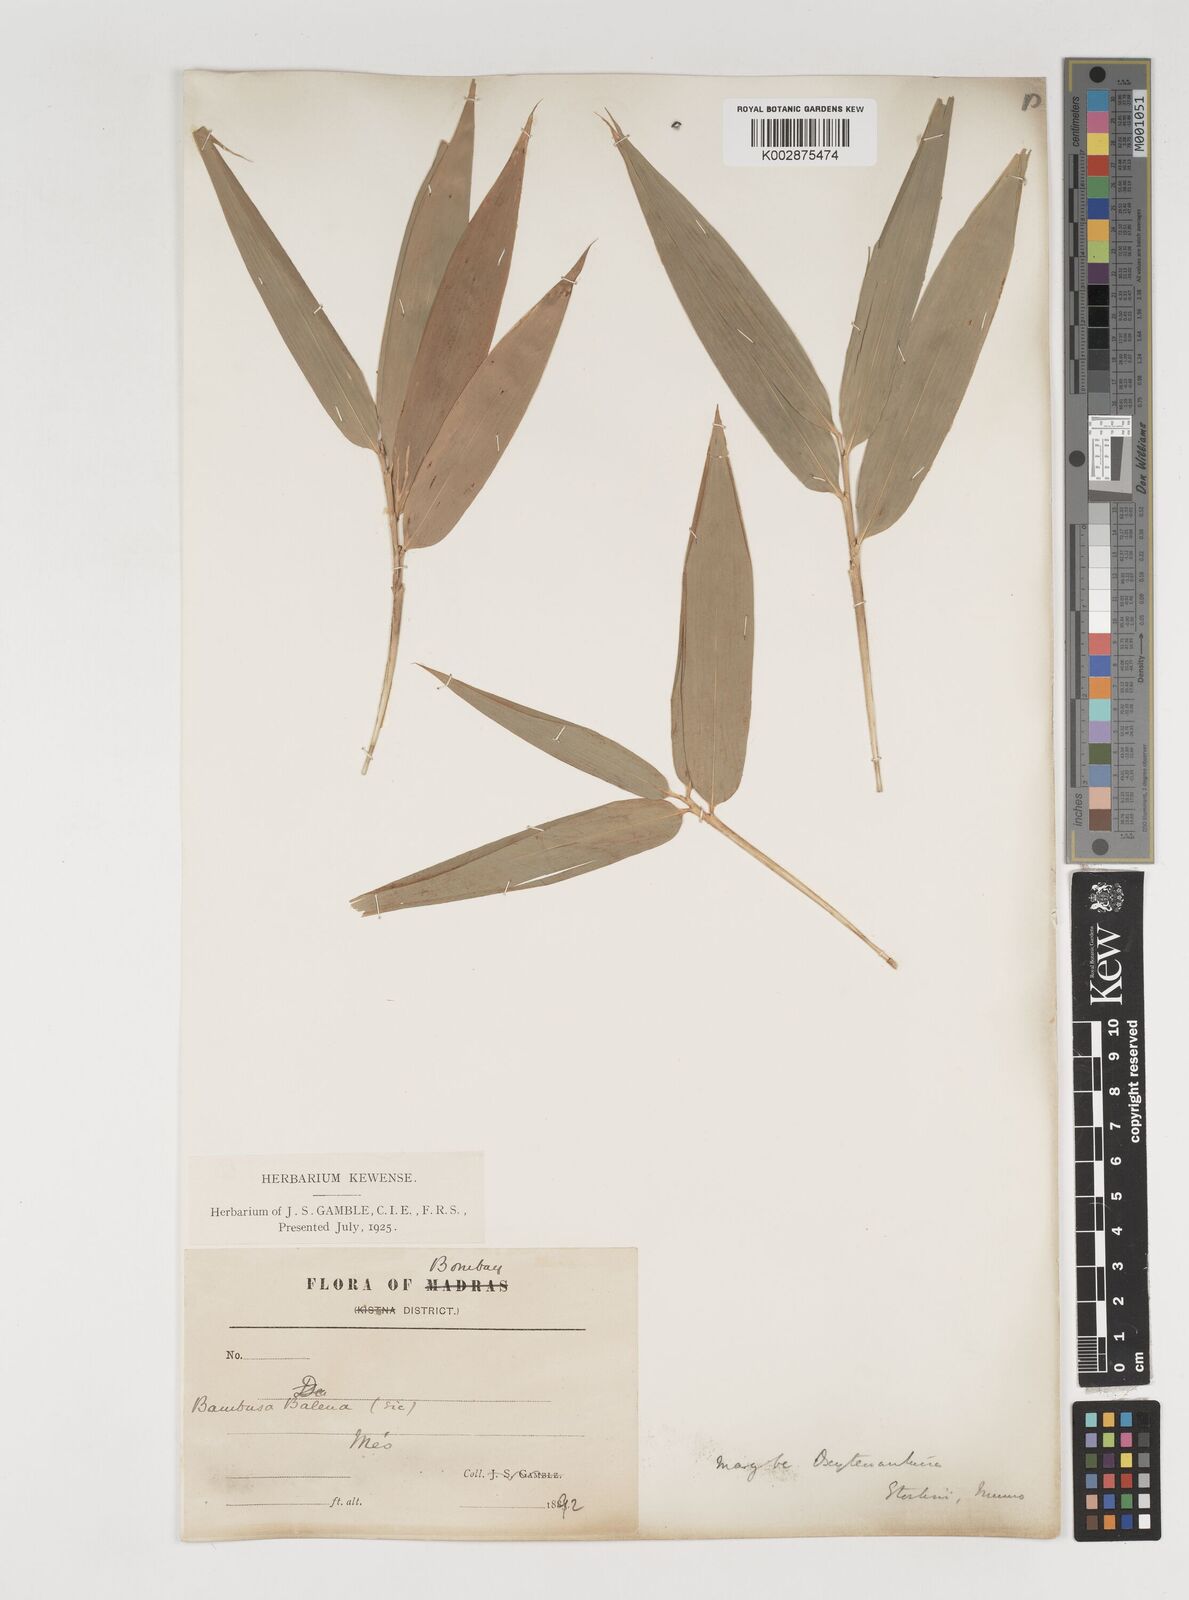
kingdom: Plantae
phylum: Tracheophyta
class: Liliopsida
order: Poales
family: Poaceae
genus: Pseudoxytenanthera
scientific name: Pseudoxytenanthera stocksii
